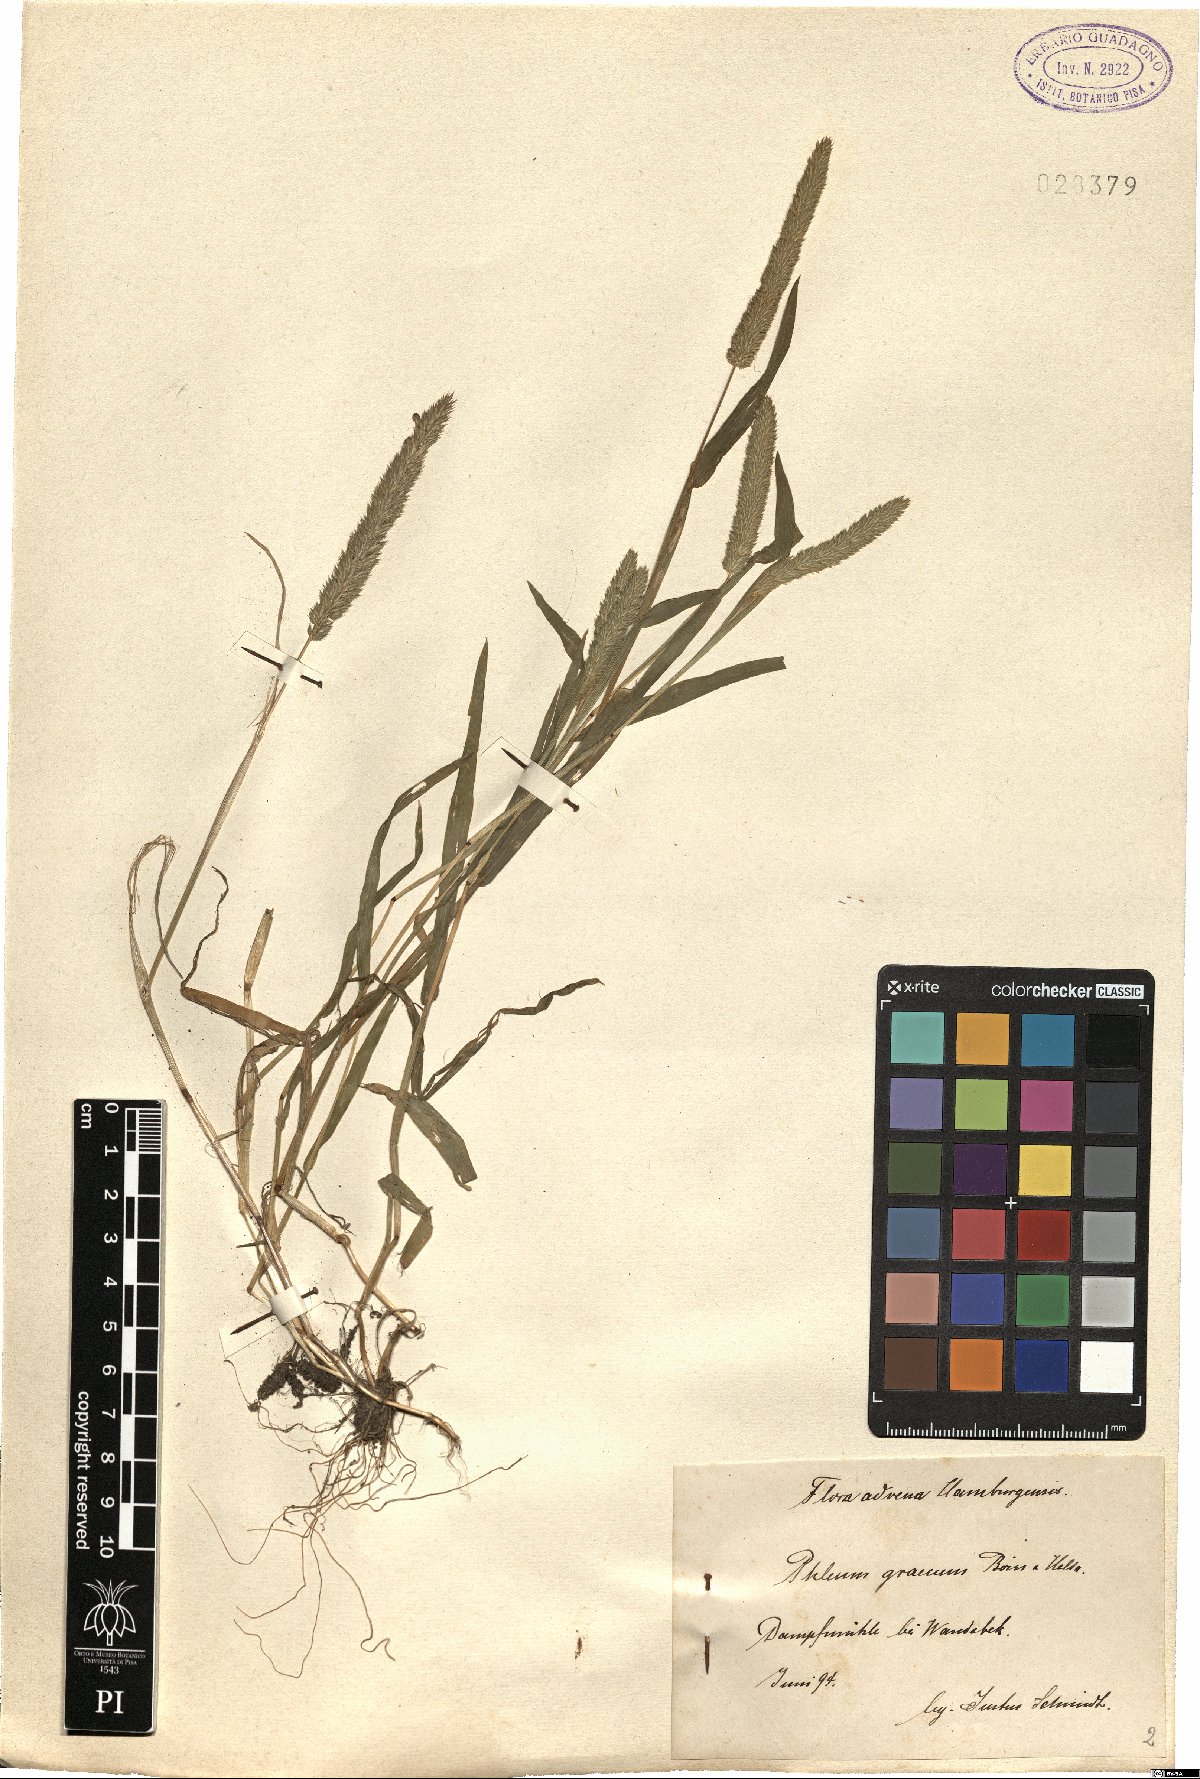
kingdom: Plantae
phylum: Tracheophyta
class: Liliopsida
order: Poales
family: Poaceae
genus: Phleum
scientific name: Phleum exaratum
